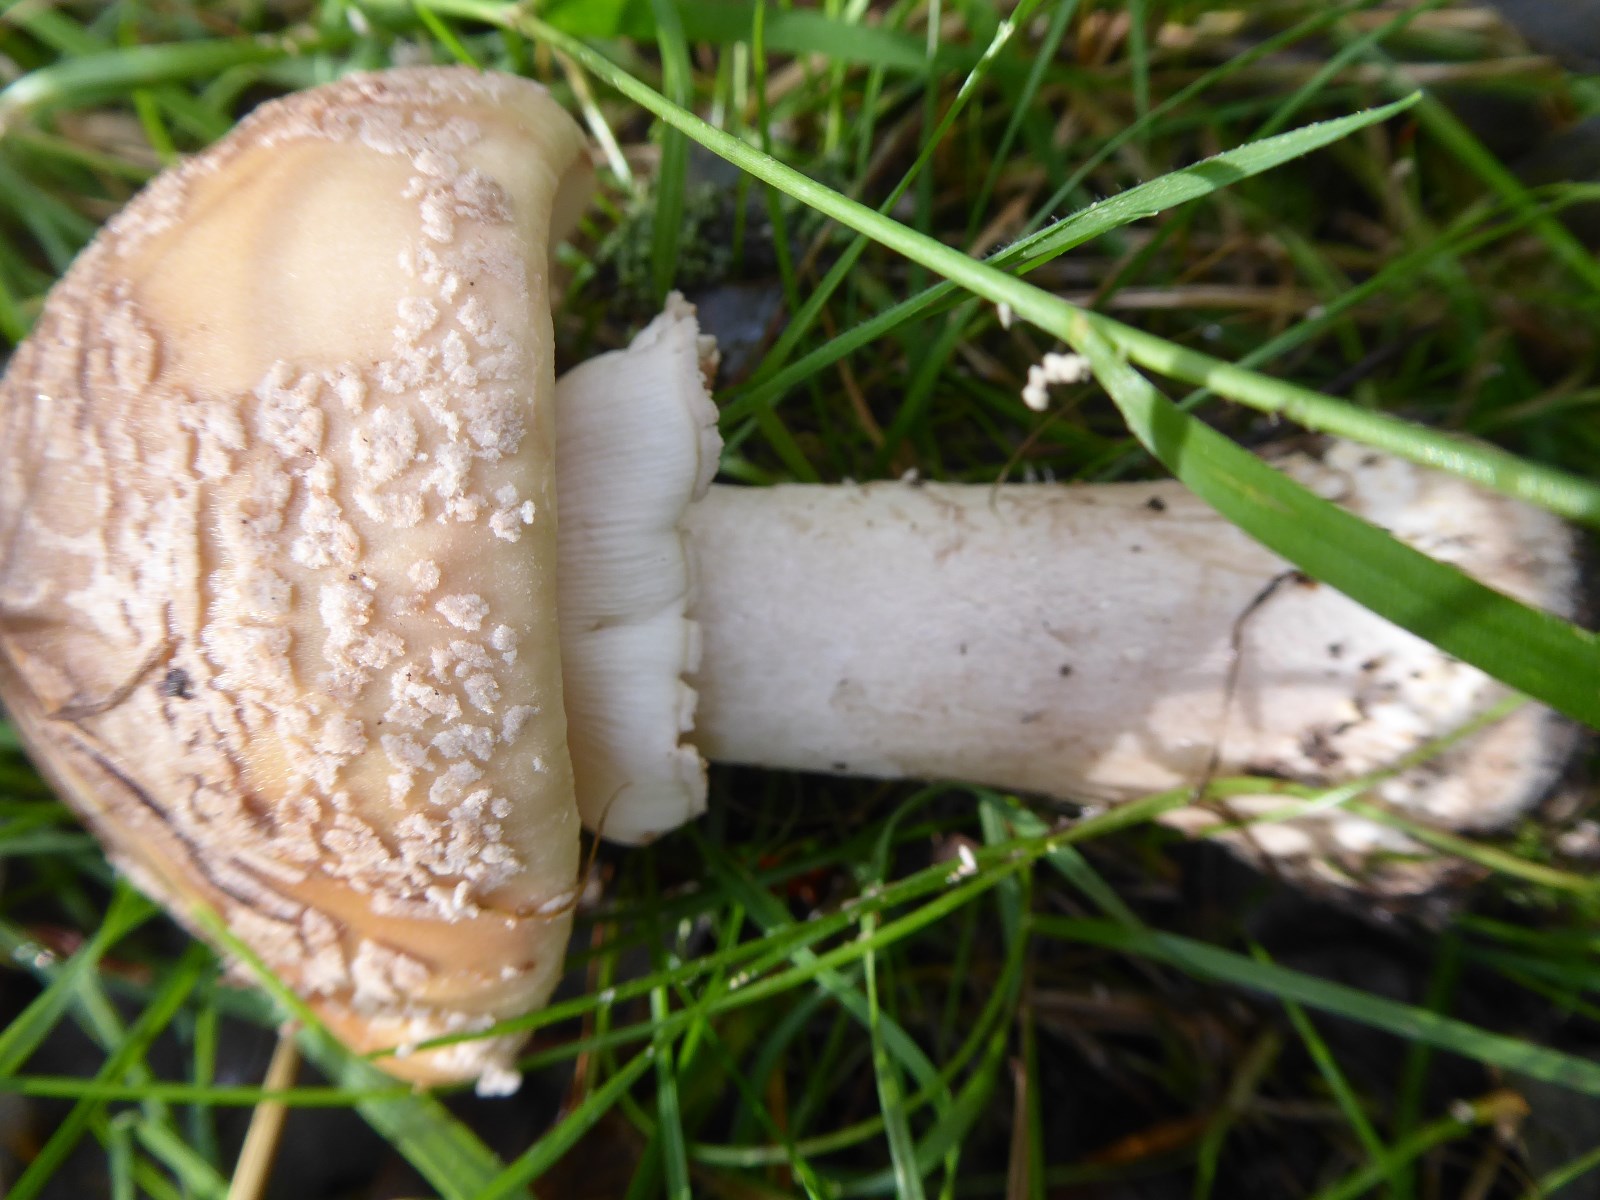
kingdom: Fungi
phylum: Basidiomycota
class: Agaricomycetes
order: Agaricales
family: Amanitaceae
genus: Amanita
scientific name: Amanita rubescens
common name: rødmende fluesvamp
